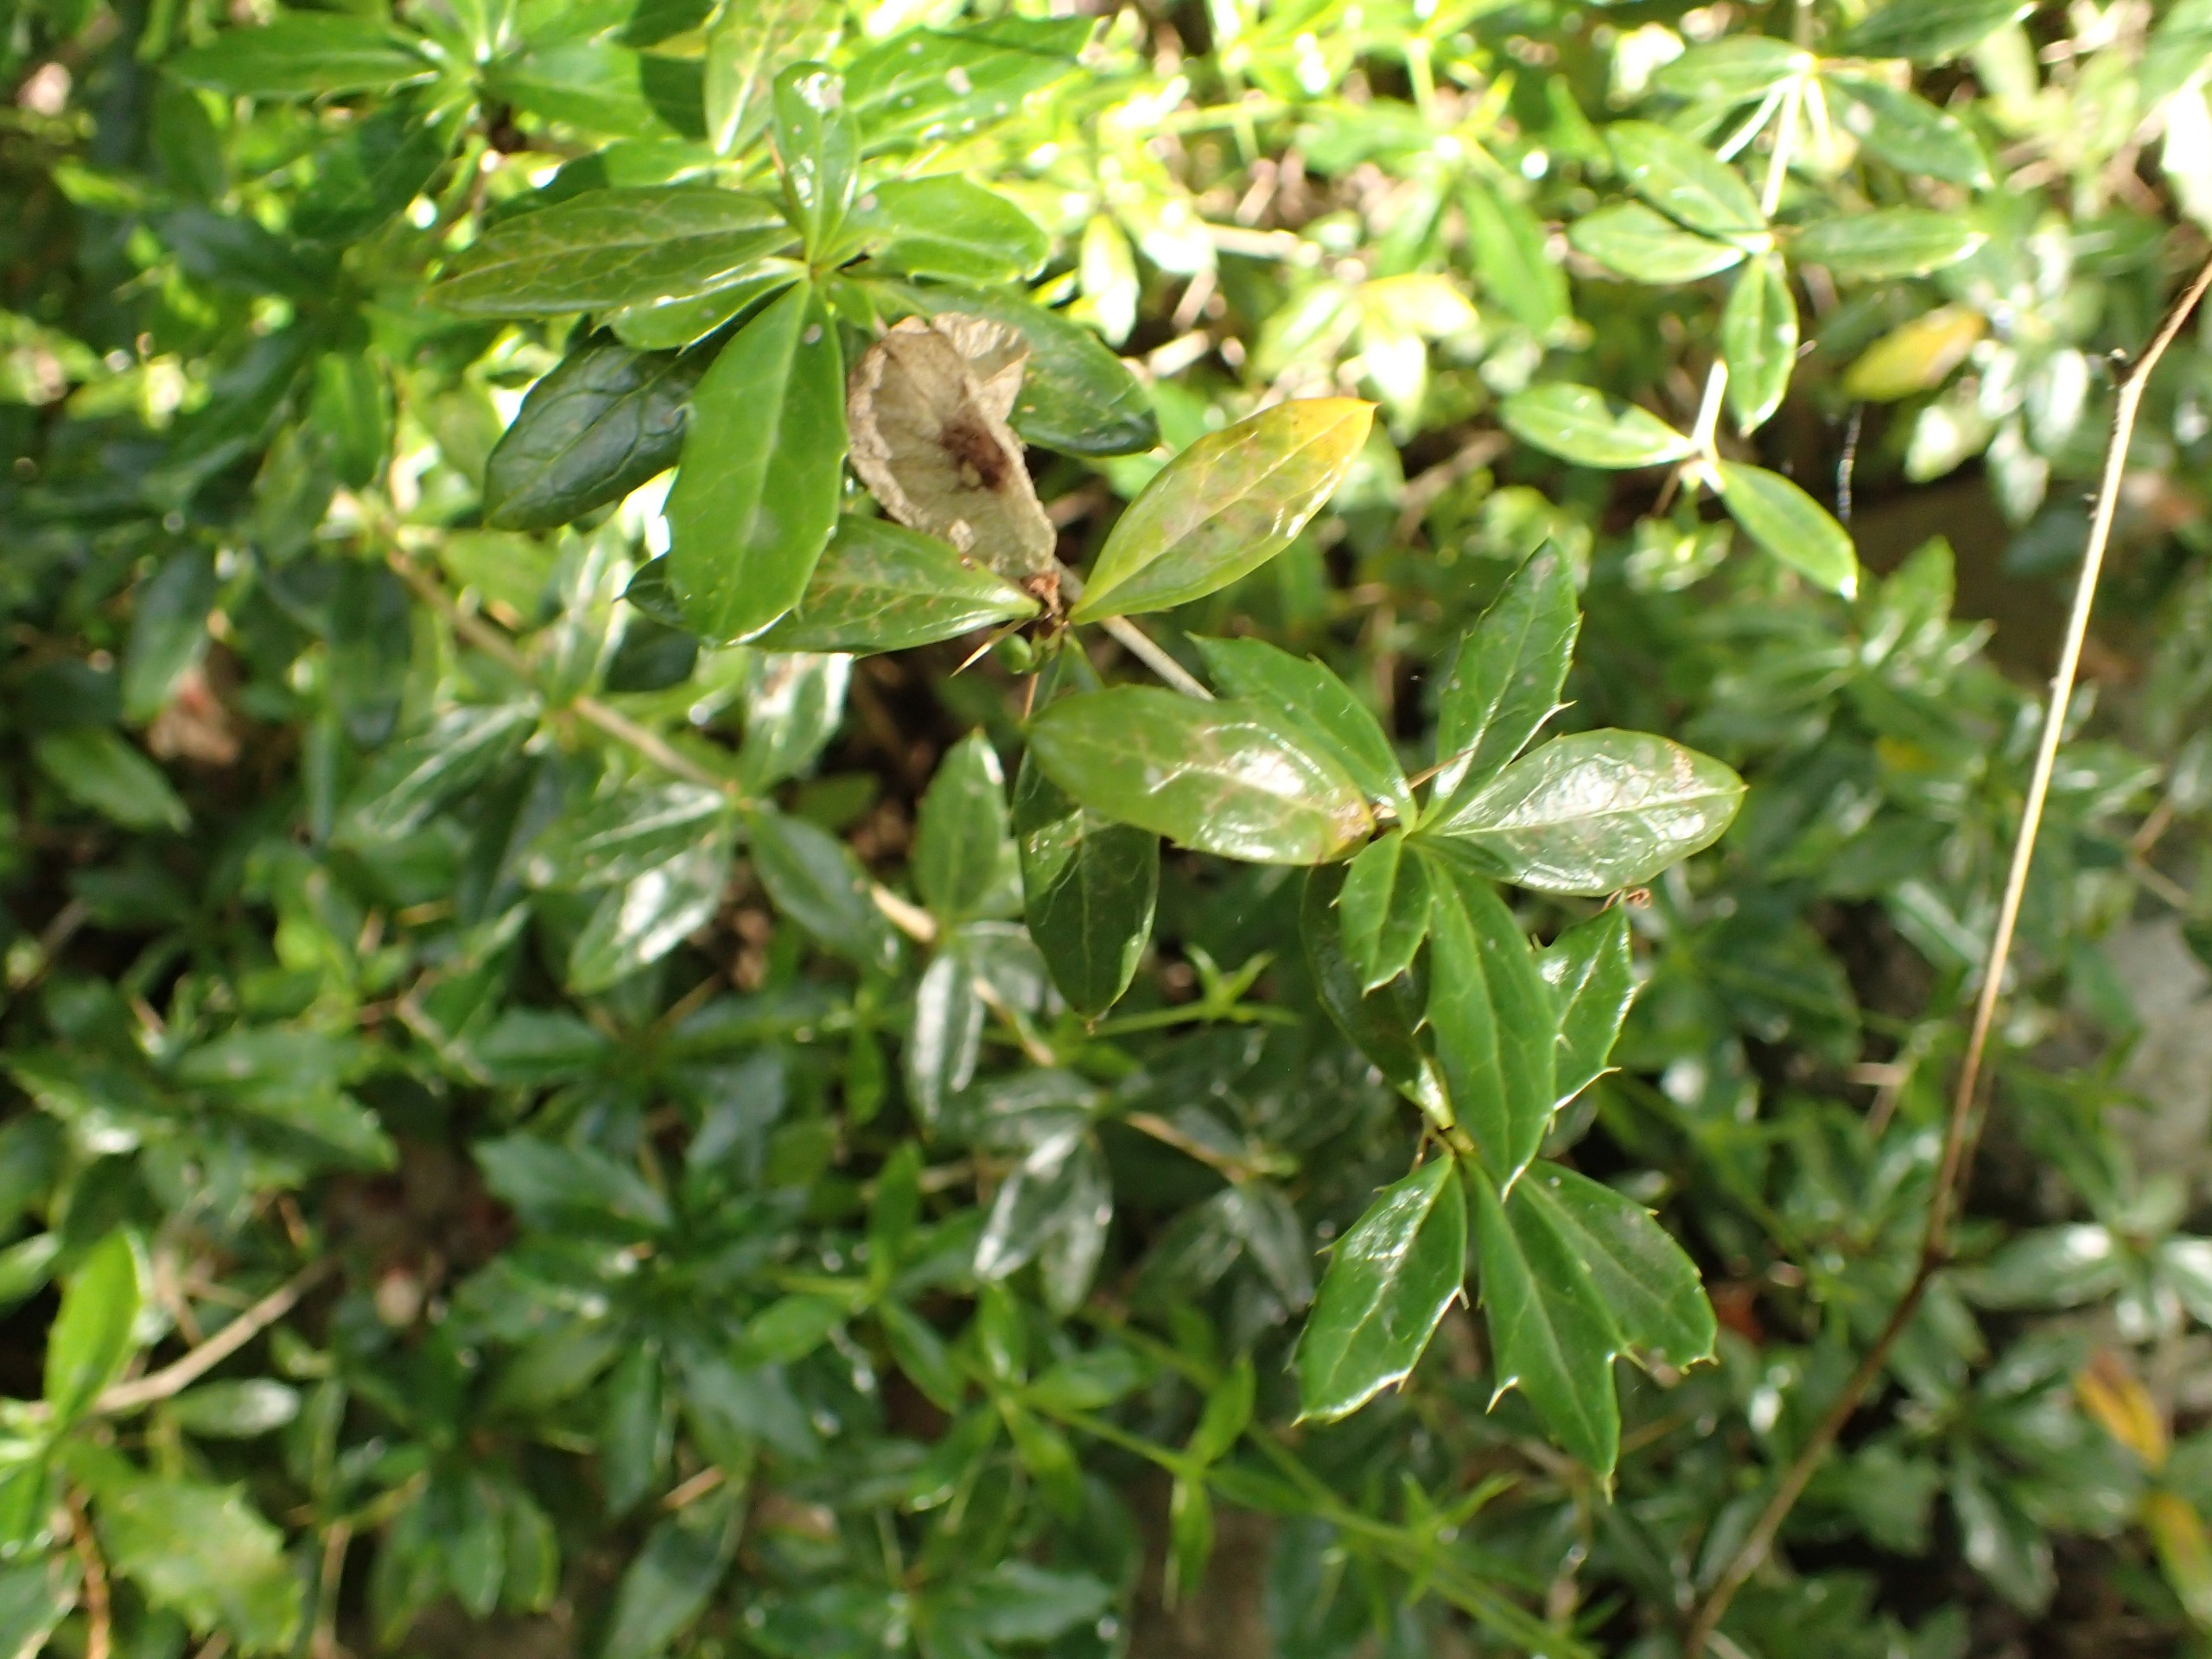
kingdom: Plantae
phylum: Tracheophyta
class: Magnoliopsida
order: Ranunculales
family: Berberidaceae
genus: Berberis
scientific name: Berberis candidula
